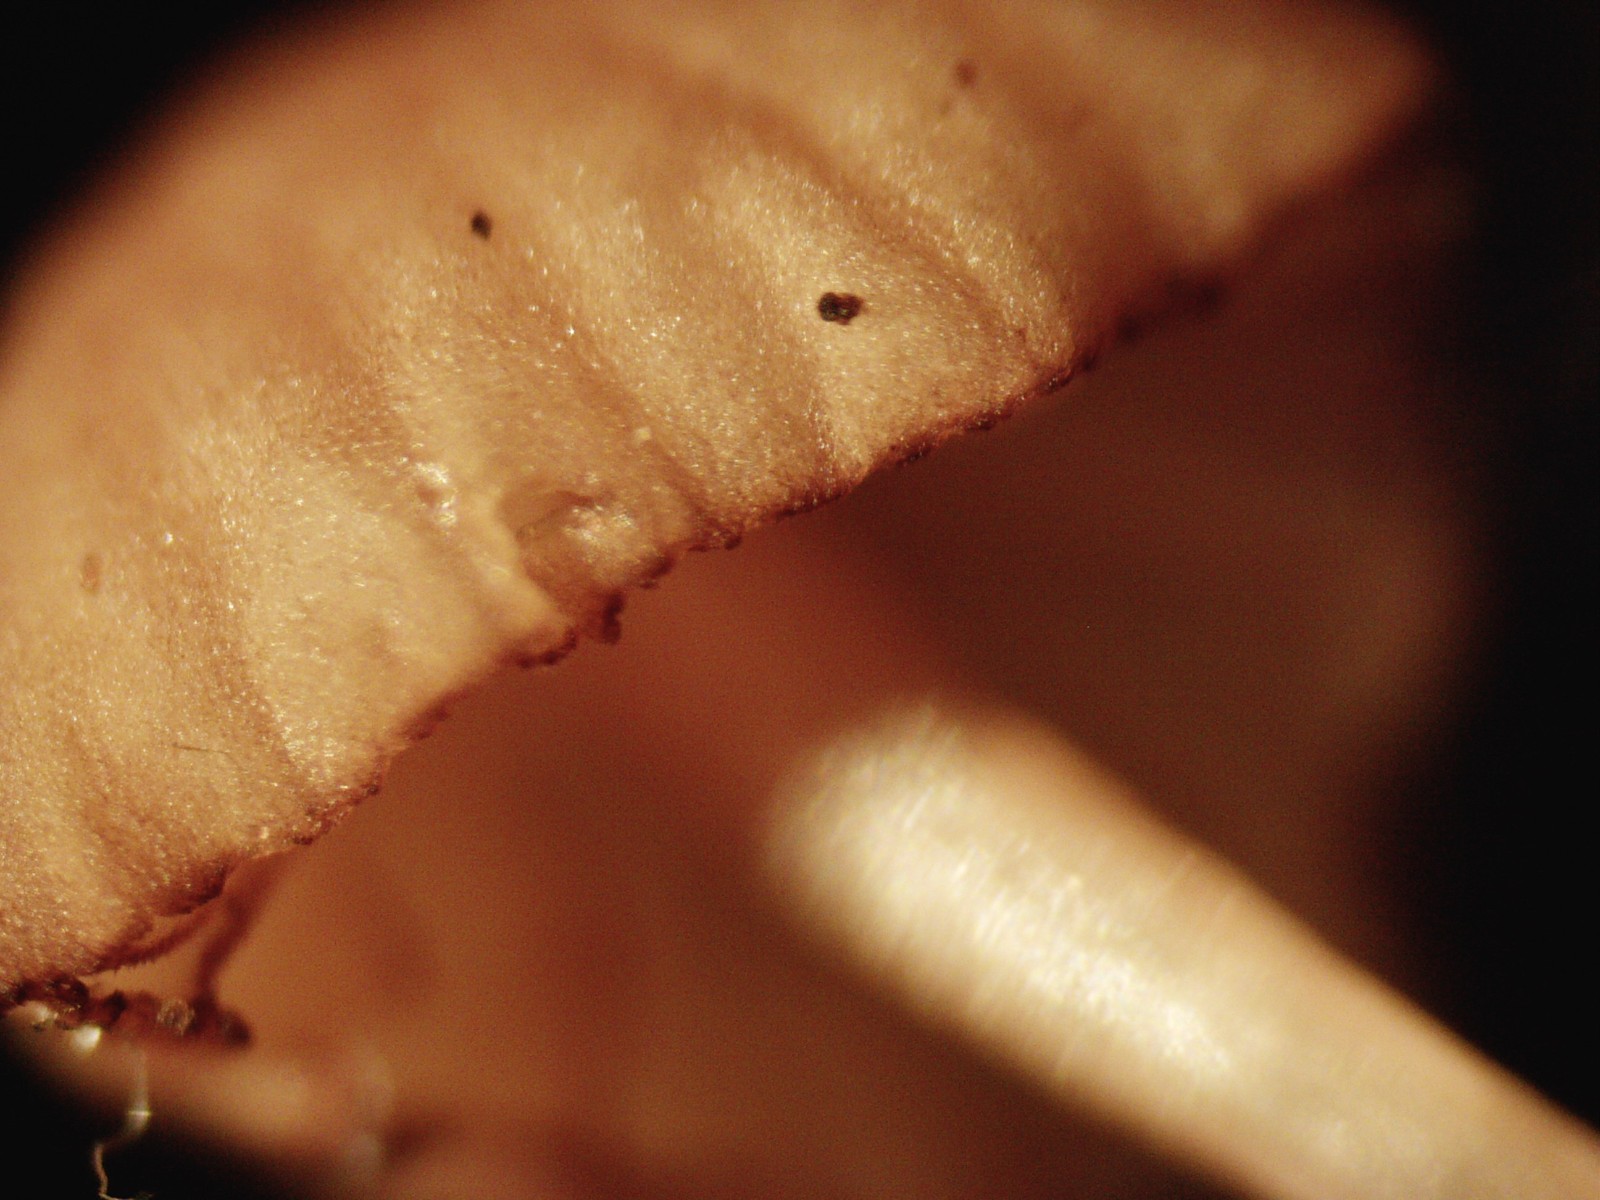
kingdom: Fungi
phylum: Basidiomycota
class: Agaricomycetes
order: Agaricales
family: Mycenaceae
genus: Mycena
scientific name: Mycena sanguinolenta
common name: rødmælket huesvamp
